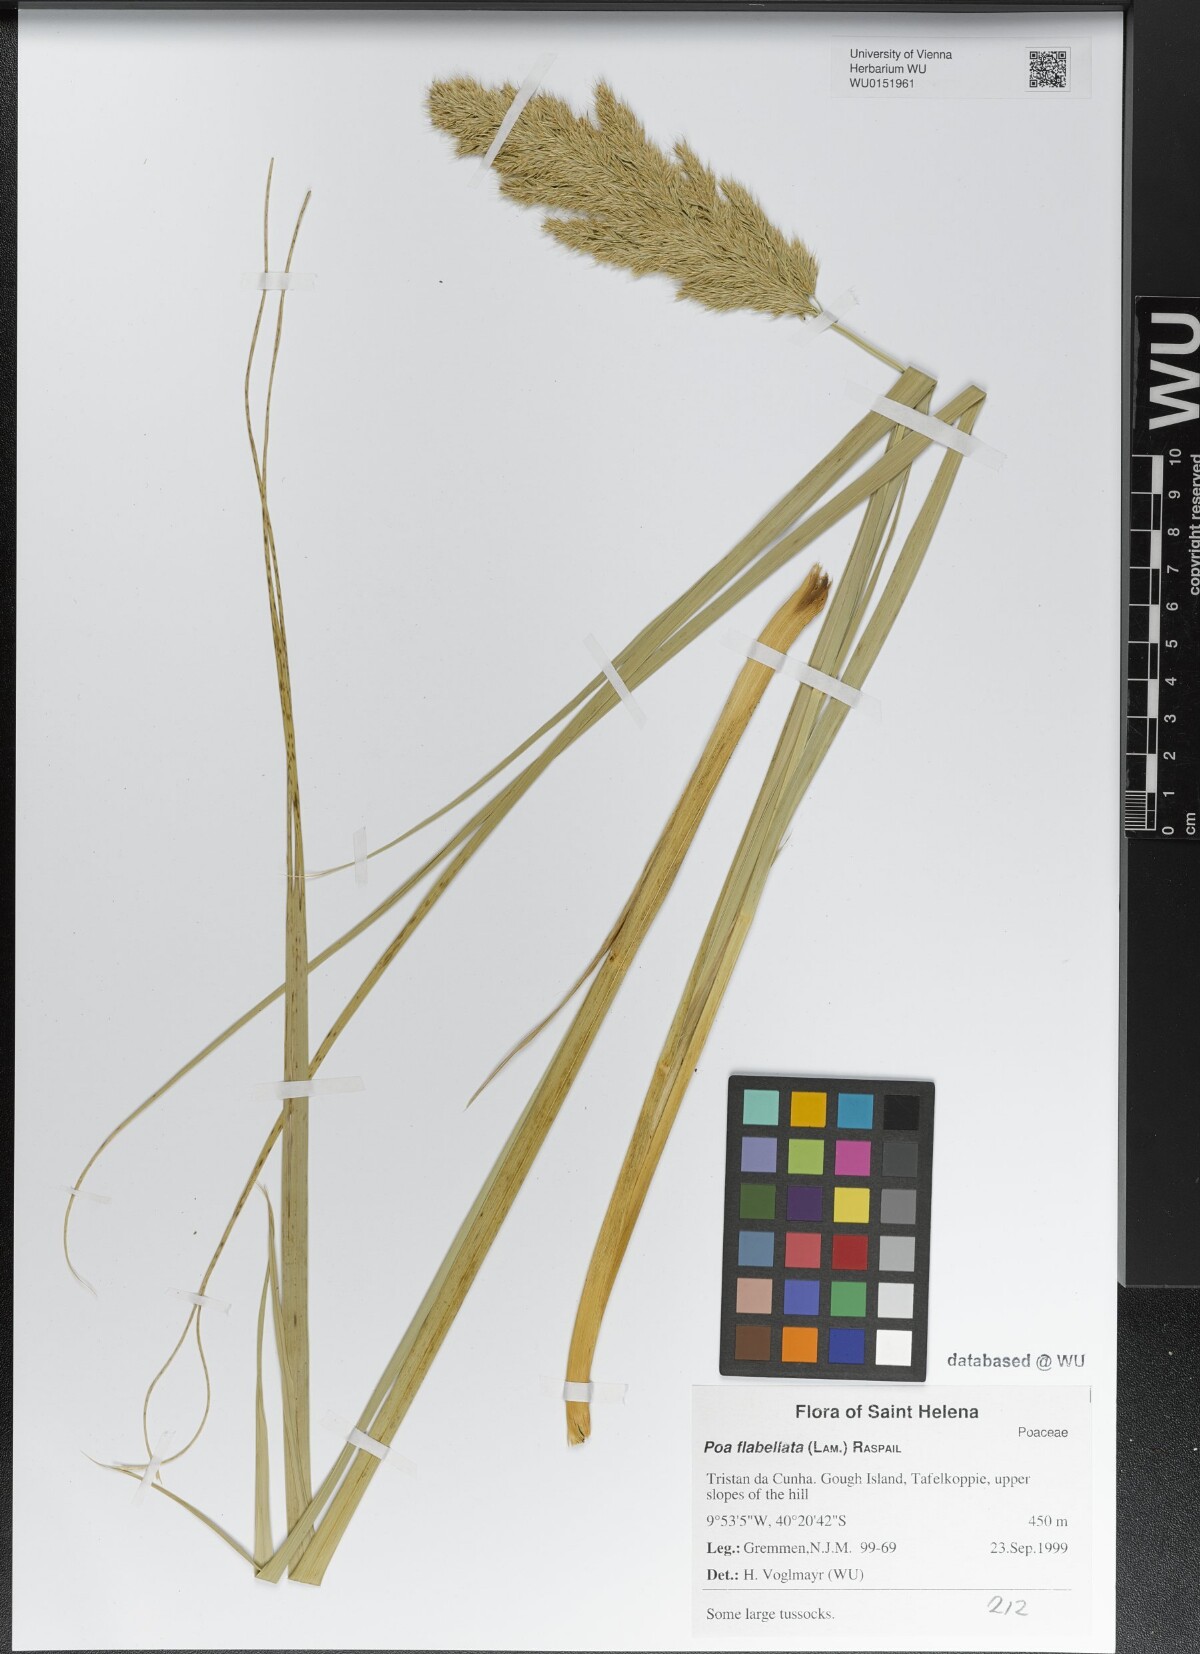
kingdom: Plantae
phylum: Tracheophyta
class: Liliopsida
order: Poales
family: Poaceae
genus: Poa
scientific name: Poa flabellata
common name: Tussac-grass
